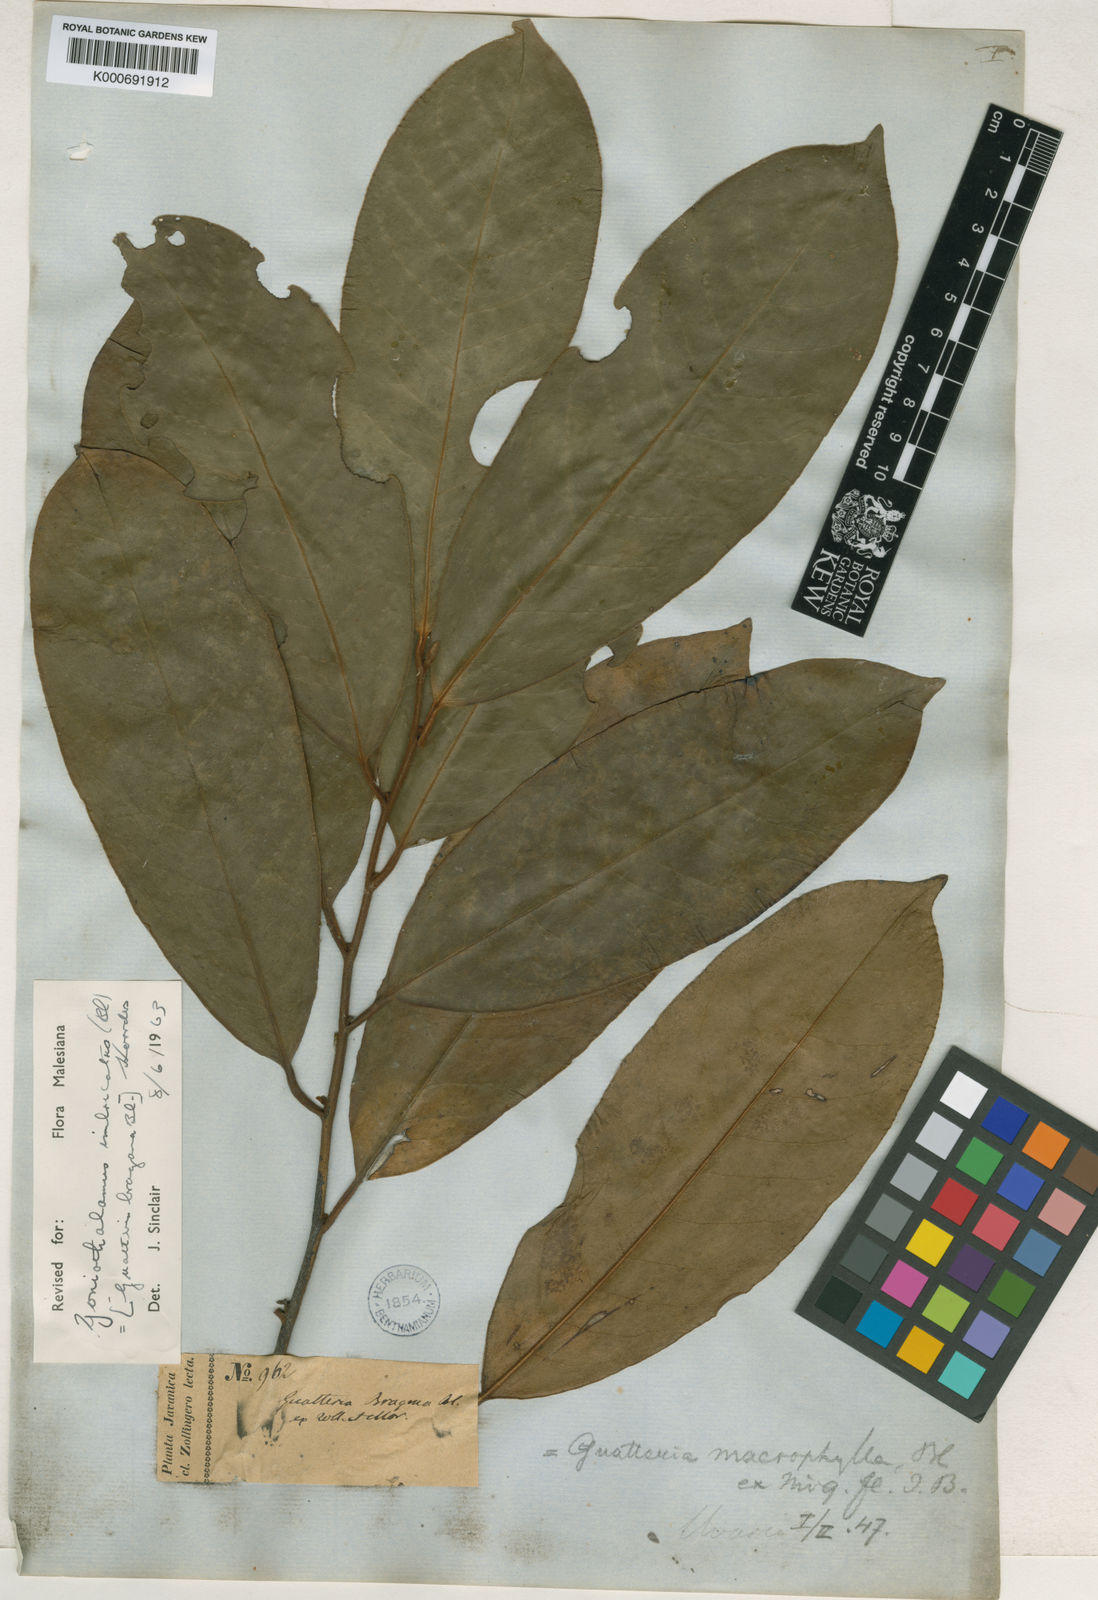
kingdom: Plantae
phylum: Tracheophyta
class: Magnoliopsida
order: Magnoliales
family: Annonaceae
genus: Goniothalamus
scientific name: Goniothalamus imbricatus
